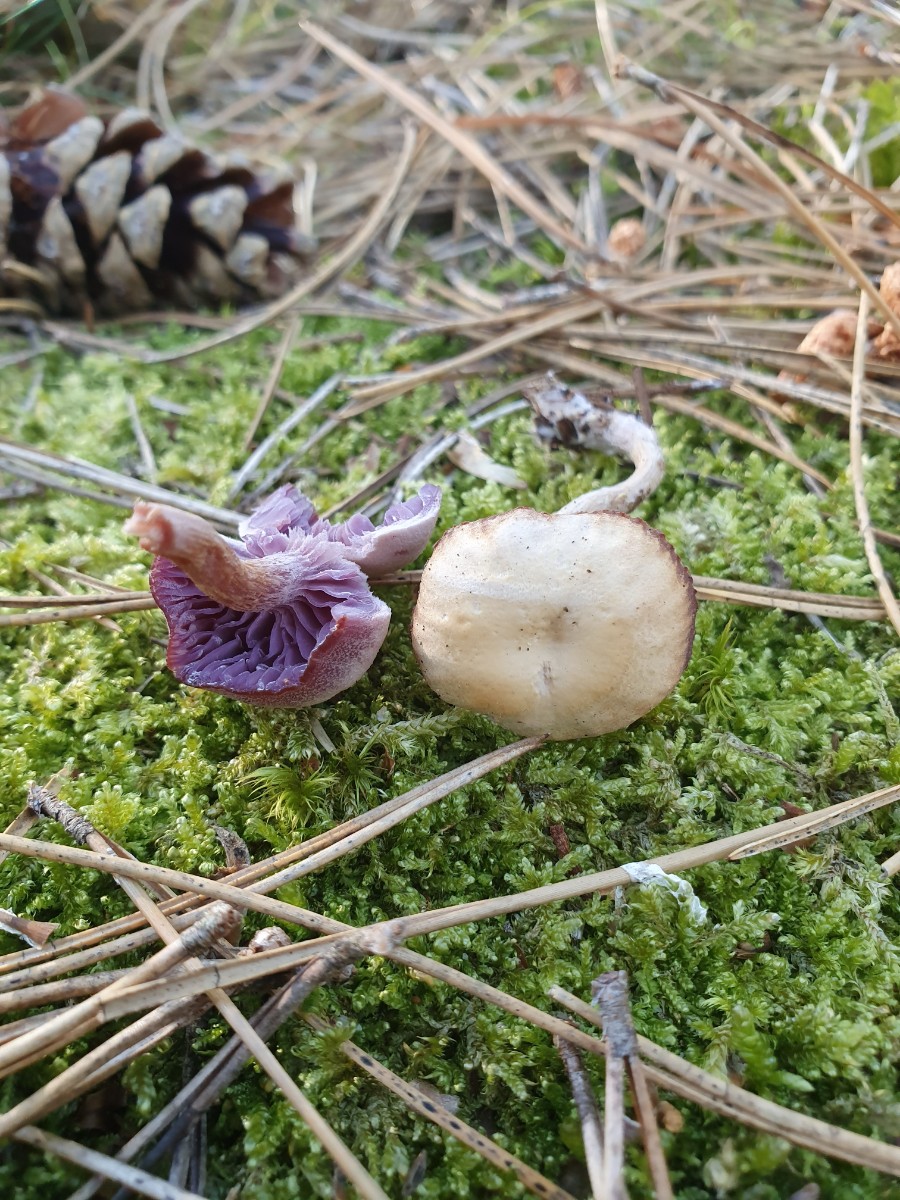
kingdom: Fungi
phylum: Basidiomycota
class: Agaricomycetes
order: Agaricales
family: Hydnangiaceae
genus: Laccaria
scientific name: Laccaria amethystina
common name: violet ametysthat
